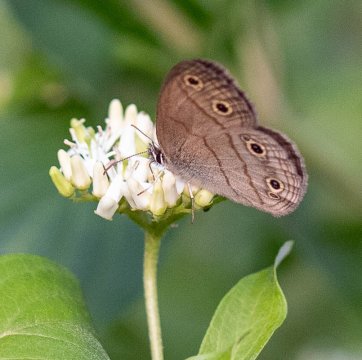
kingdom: Animalia
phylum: Arthropoda
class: Insecta
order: Lepidoptera
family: Nymphalidae
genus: Euptychia
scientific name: Euptychia cymela
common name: Little Wood Satyr
